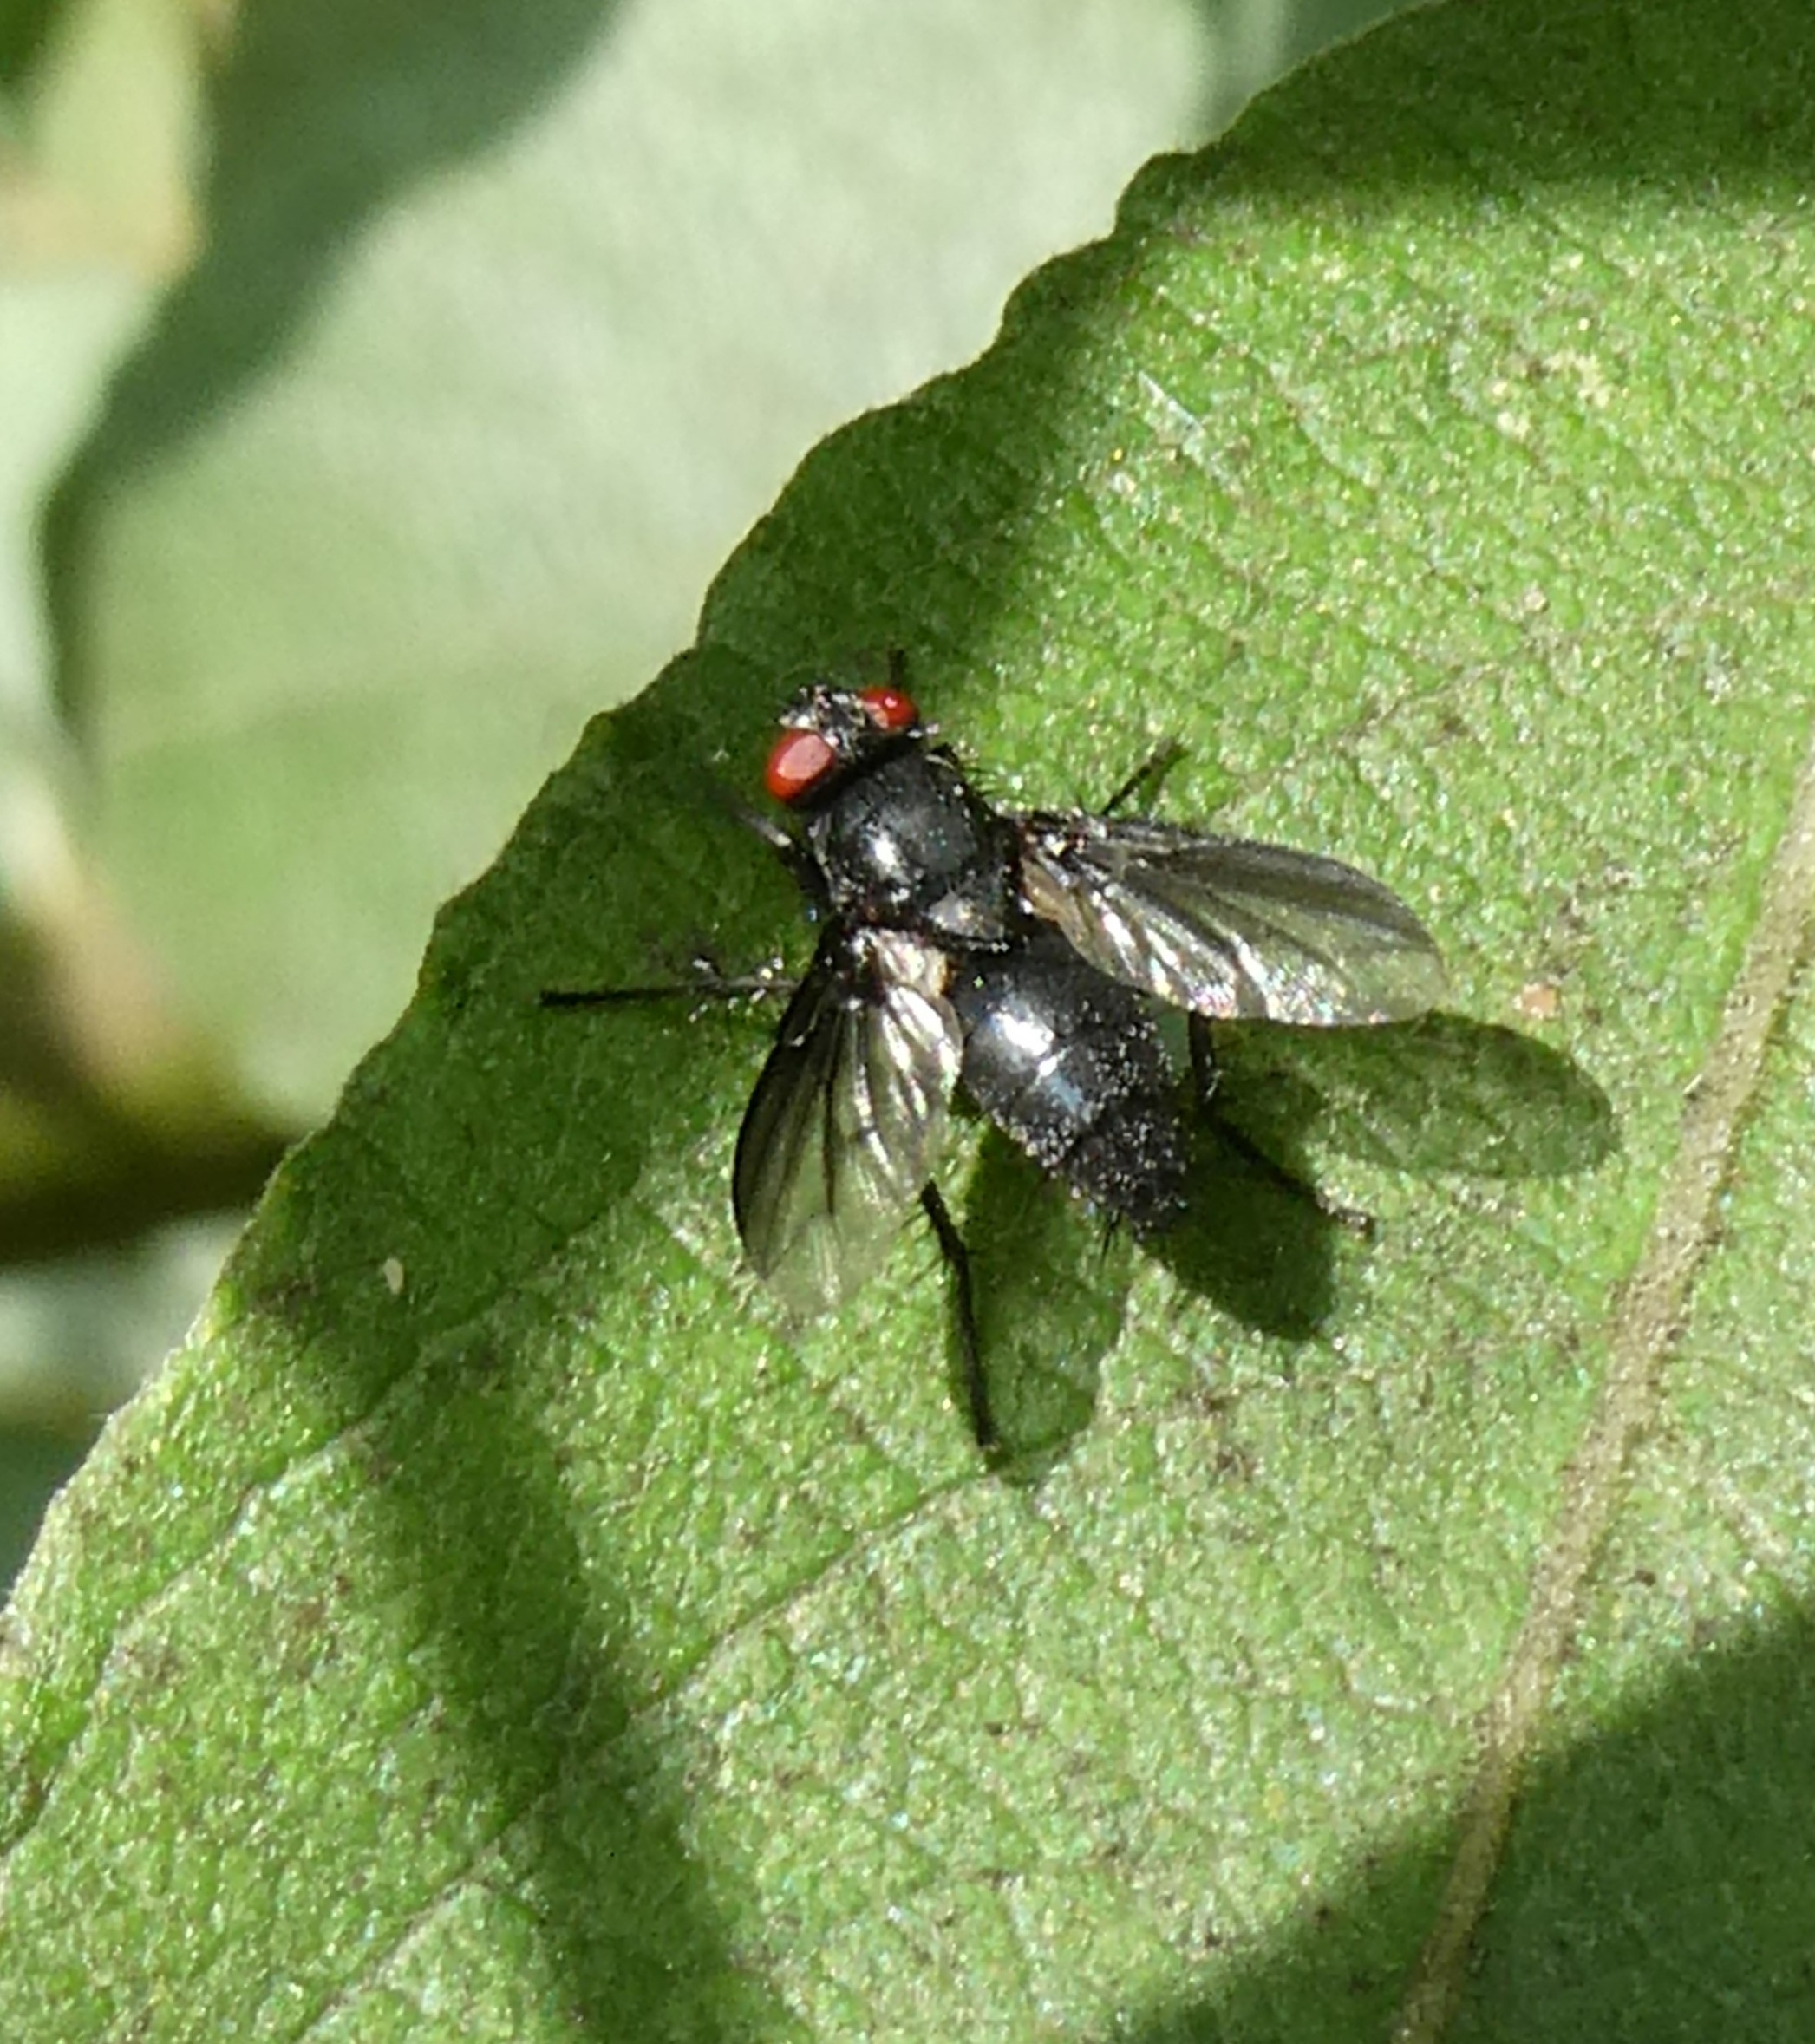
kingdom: Animalia
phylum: Arthropoda
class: Insecta
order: Diptera
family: Sarcophagidae
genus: Nyctia
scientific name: Nyctia halterata
